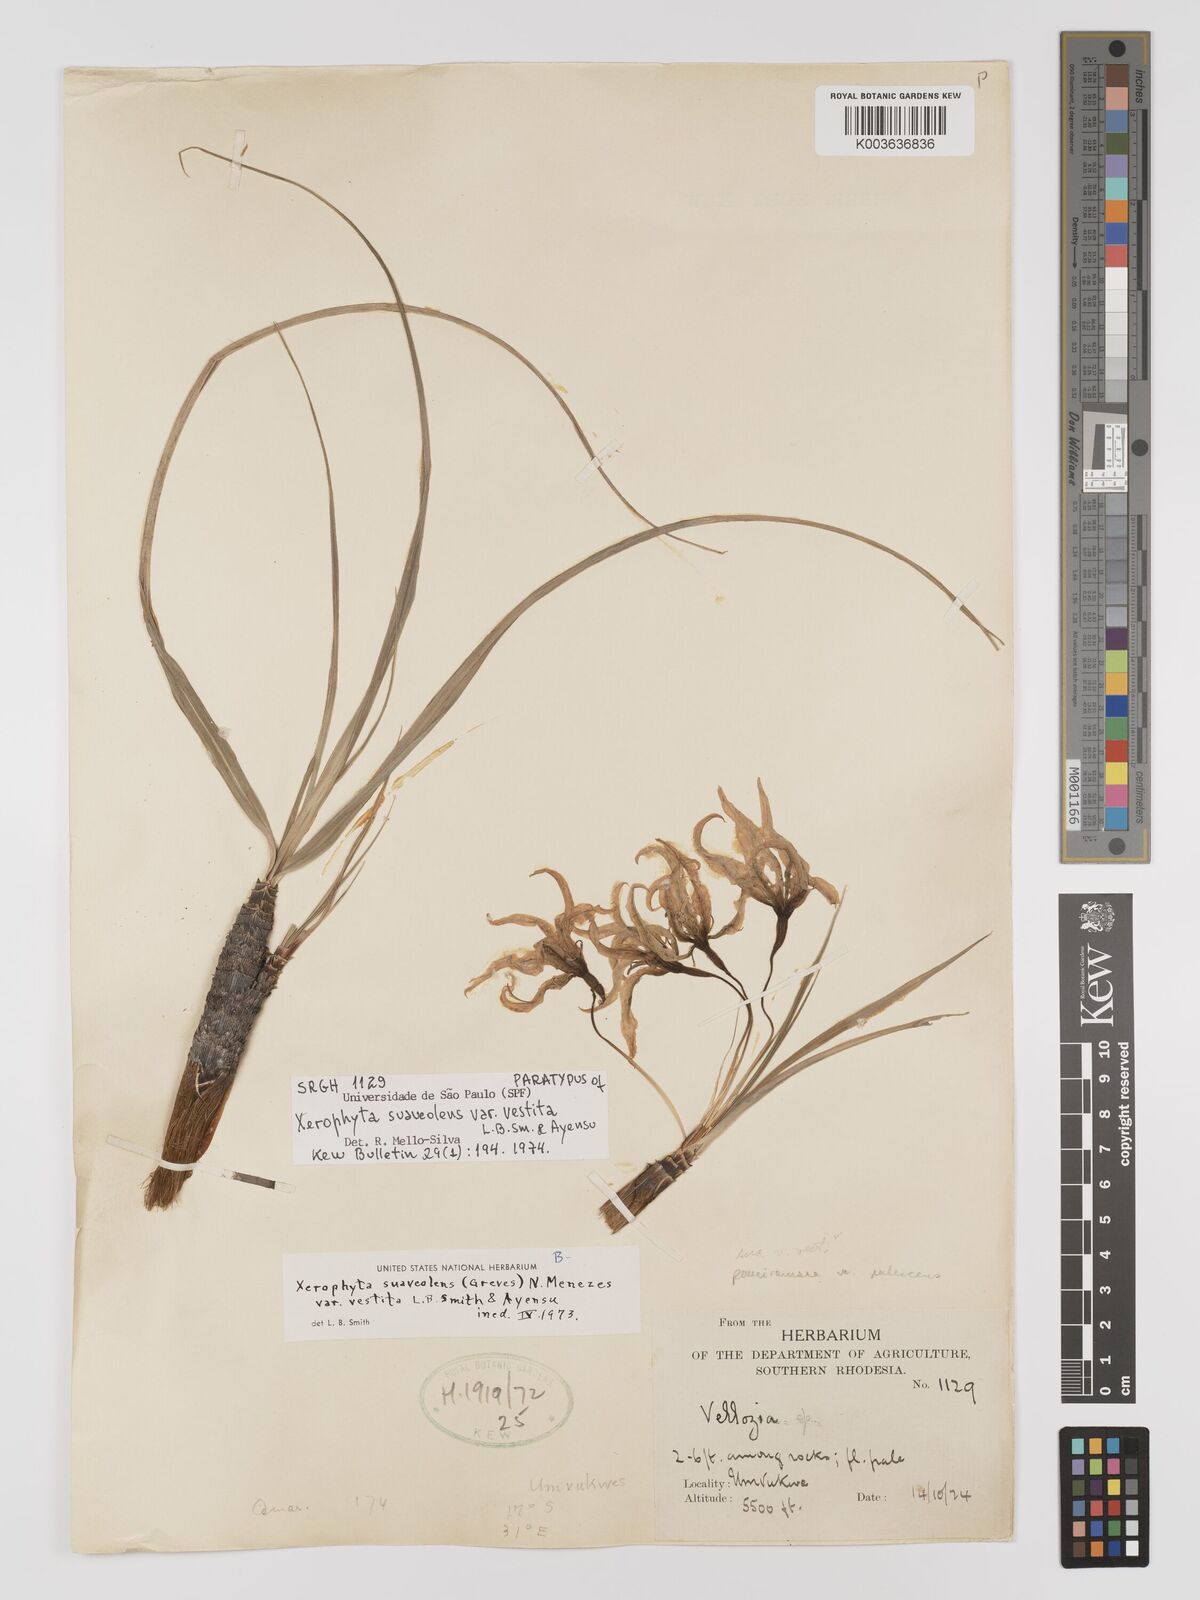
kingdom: Plantae
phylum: Tracheophyta
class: Liliopsida
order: Pandanales
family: Velloziaceae
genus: Xerophyta
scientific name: Xerophyta suaveolens
